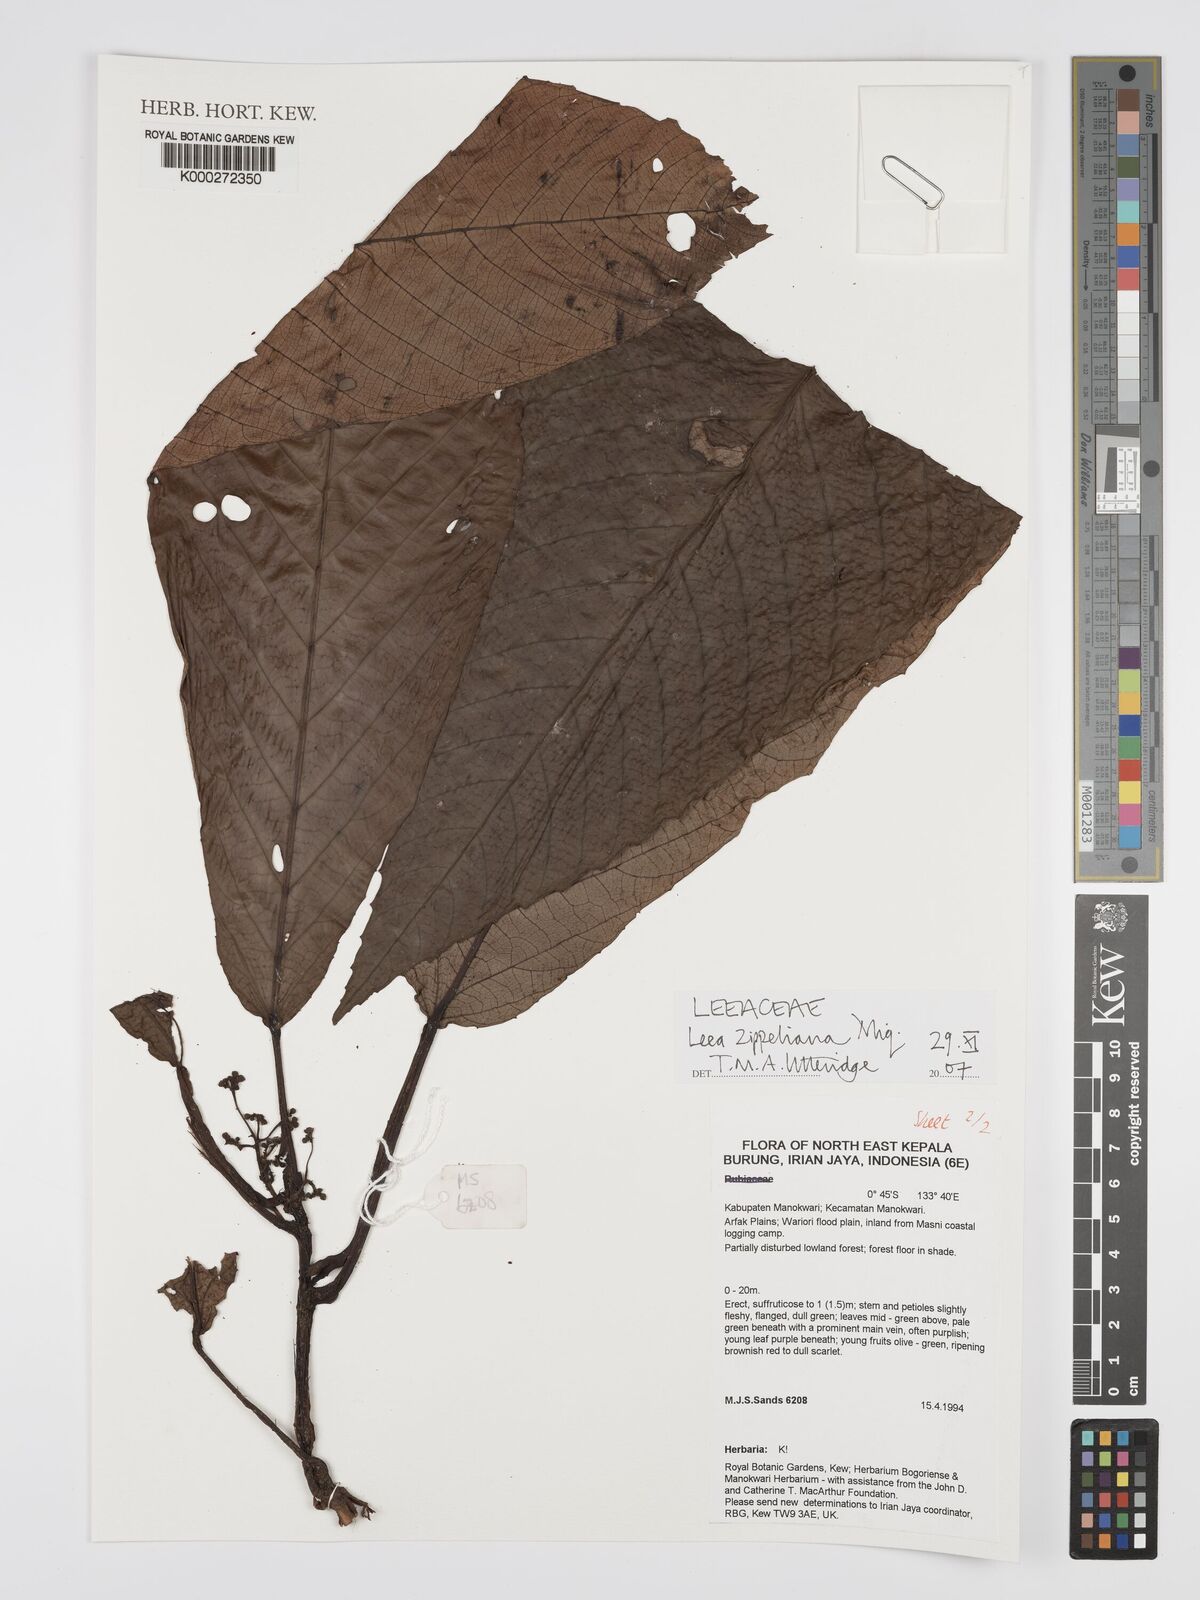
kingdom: Plantae
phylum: Tracheophyta
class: Magnoliopsida
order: Vitales
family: Vitaceae
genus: Leea
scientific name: Leea zippeliana
